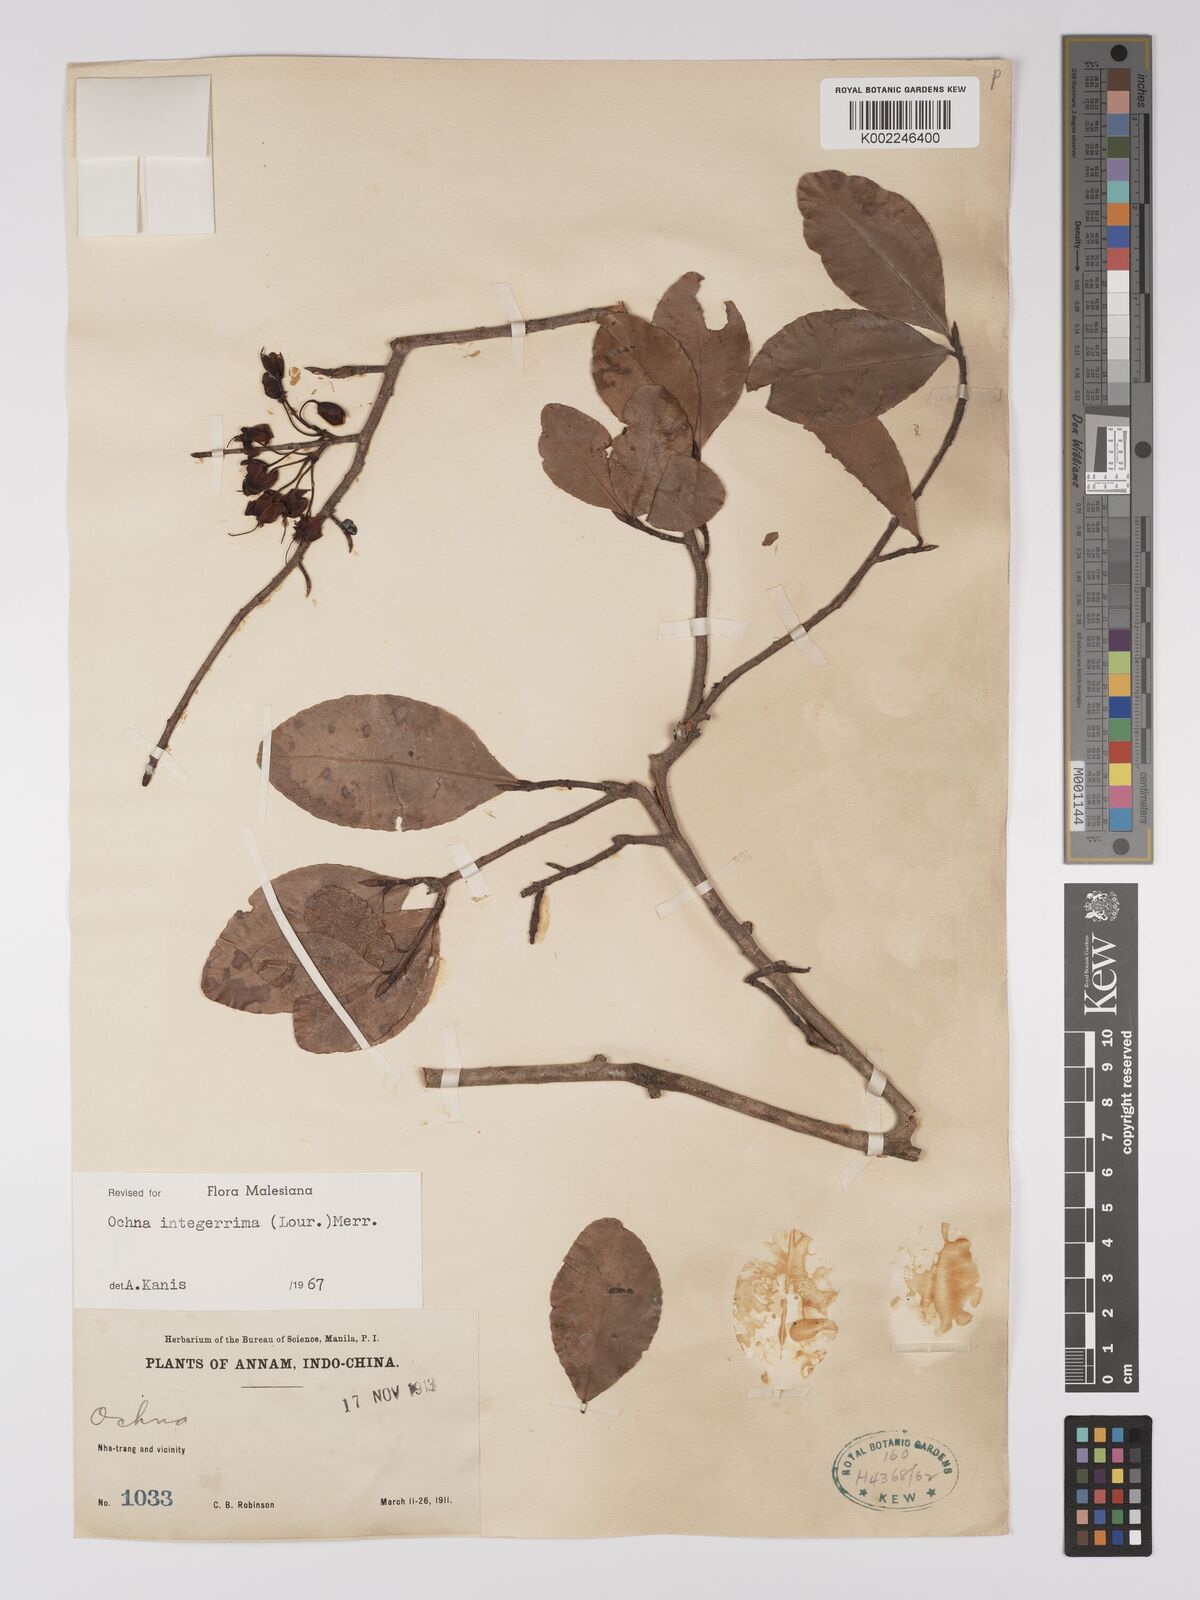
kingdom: Plantae
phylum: Tracheophyta
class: Magnoliopsida
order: Malpighiales
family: Ochnaceae
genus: Ochna
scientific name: Ochna integerrima
